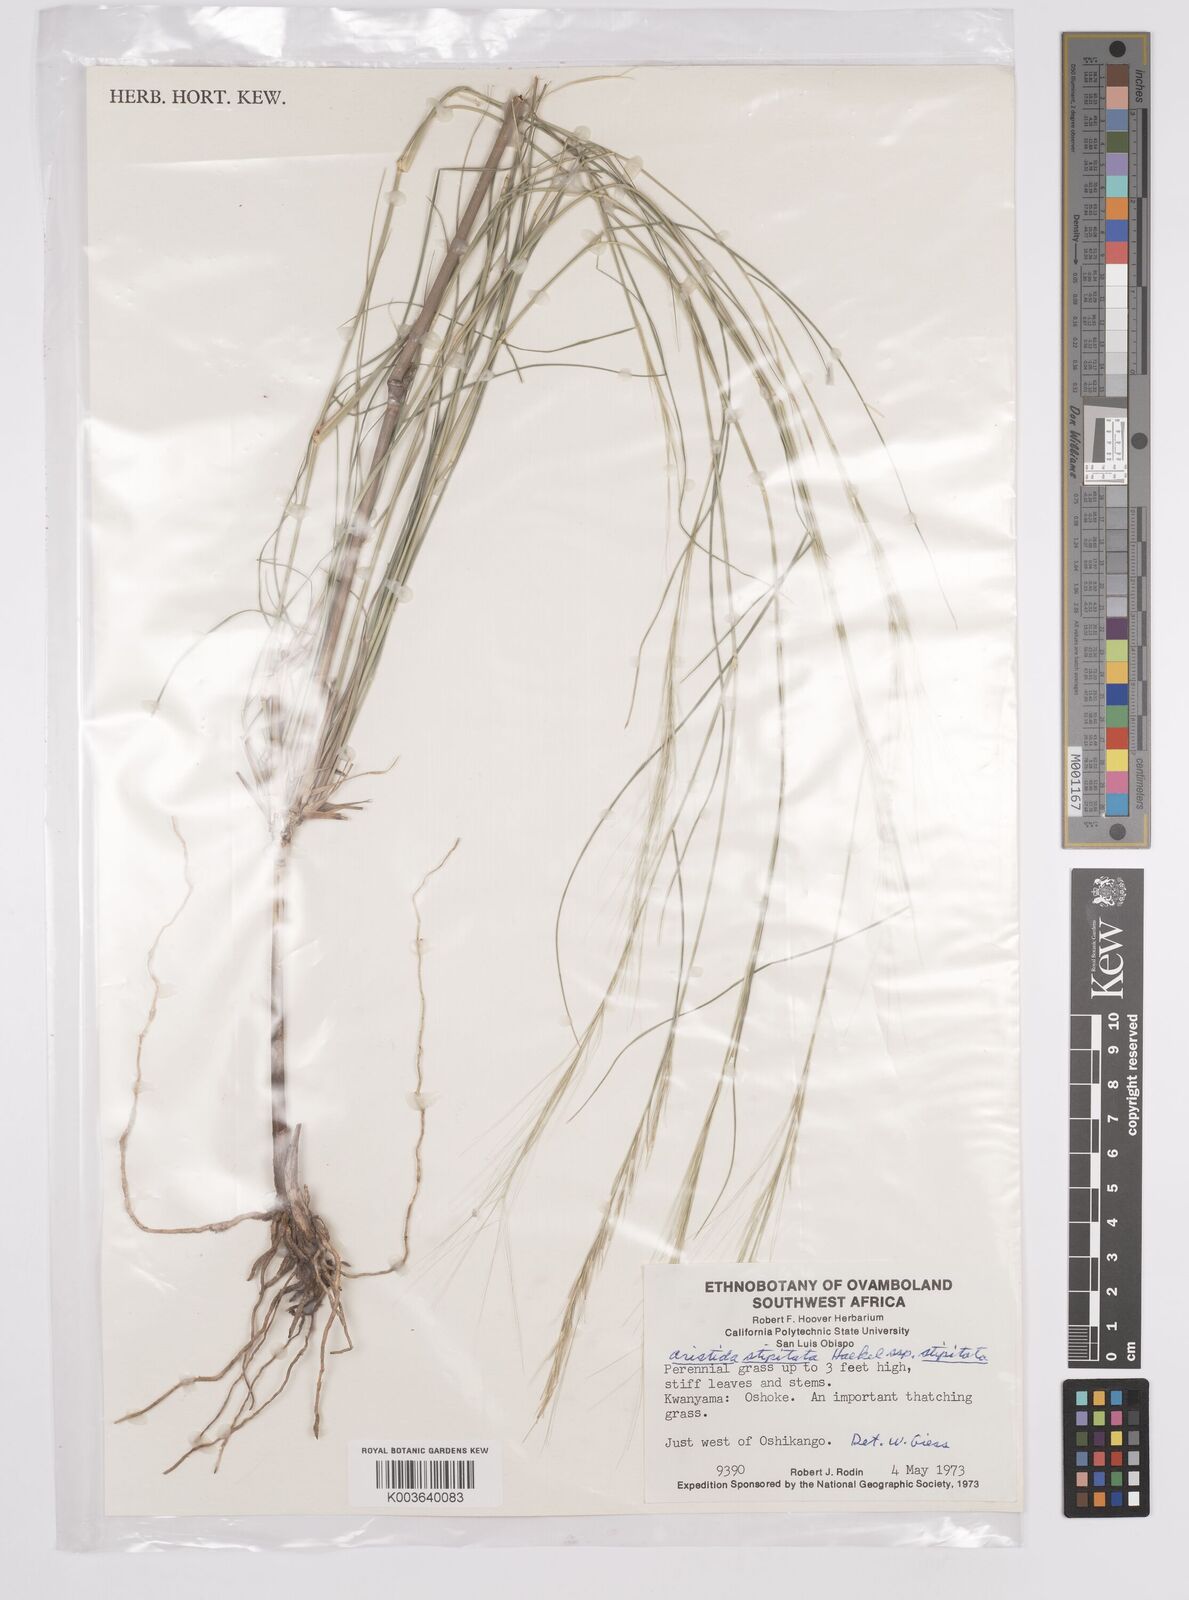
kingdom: Plantae
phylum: Tracheophyta
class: Liliopsida
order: Poales
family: Poaceae
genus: Aristida
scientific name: Aristida stipitata
